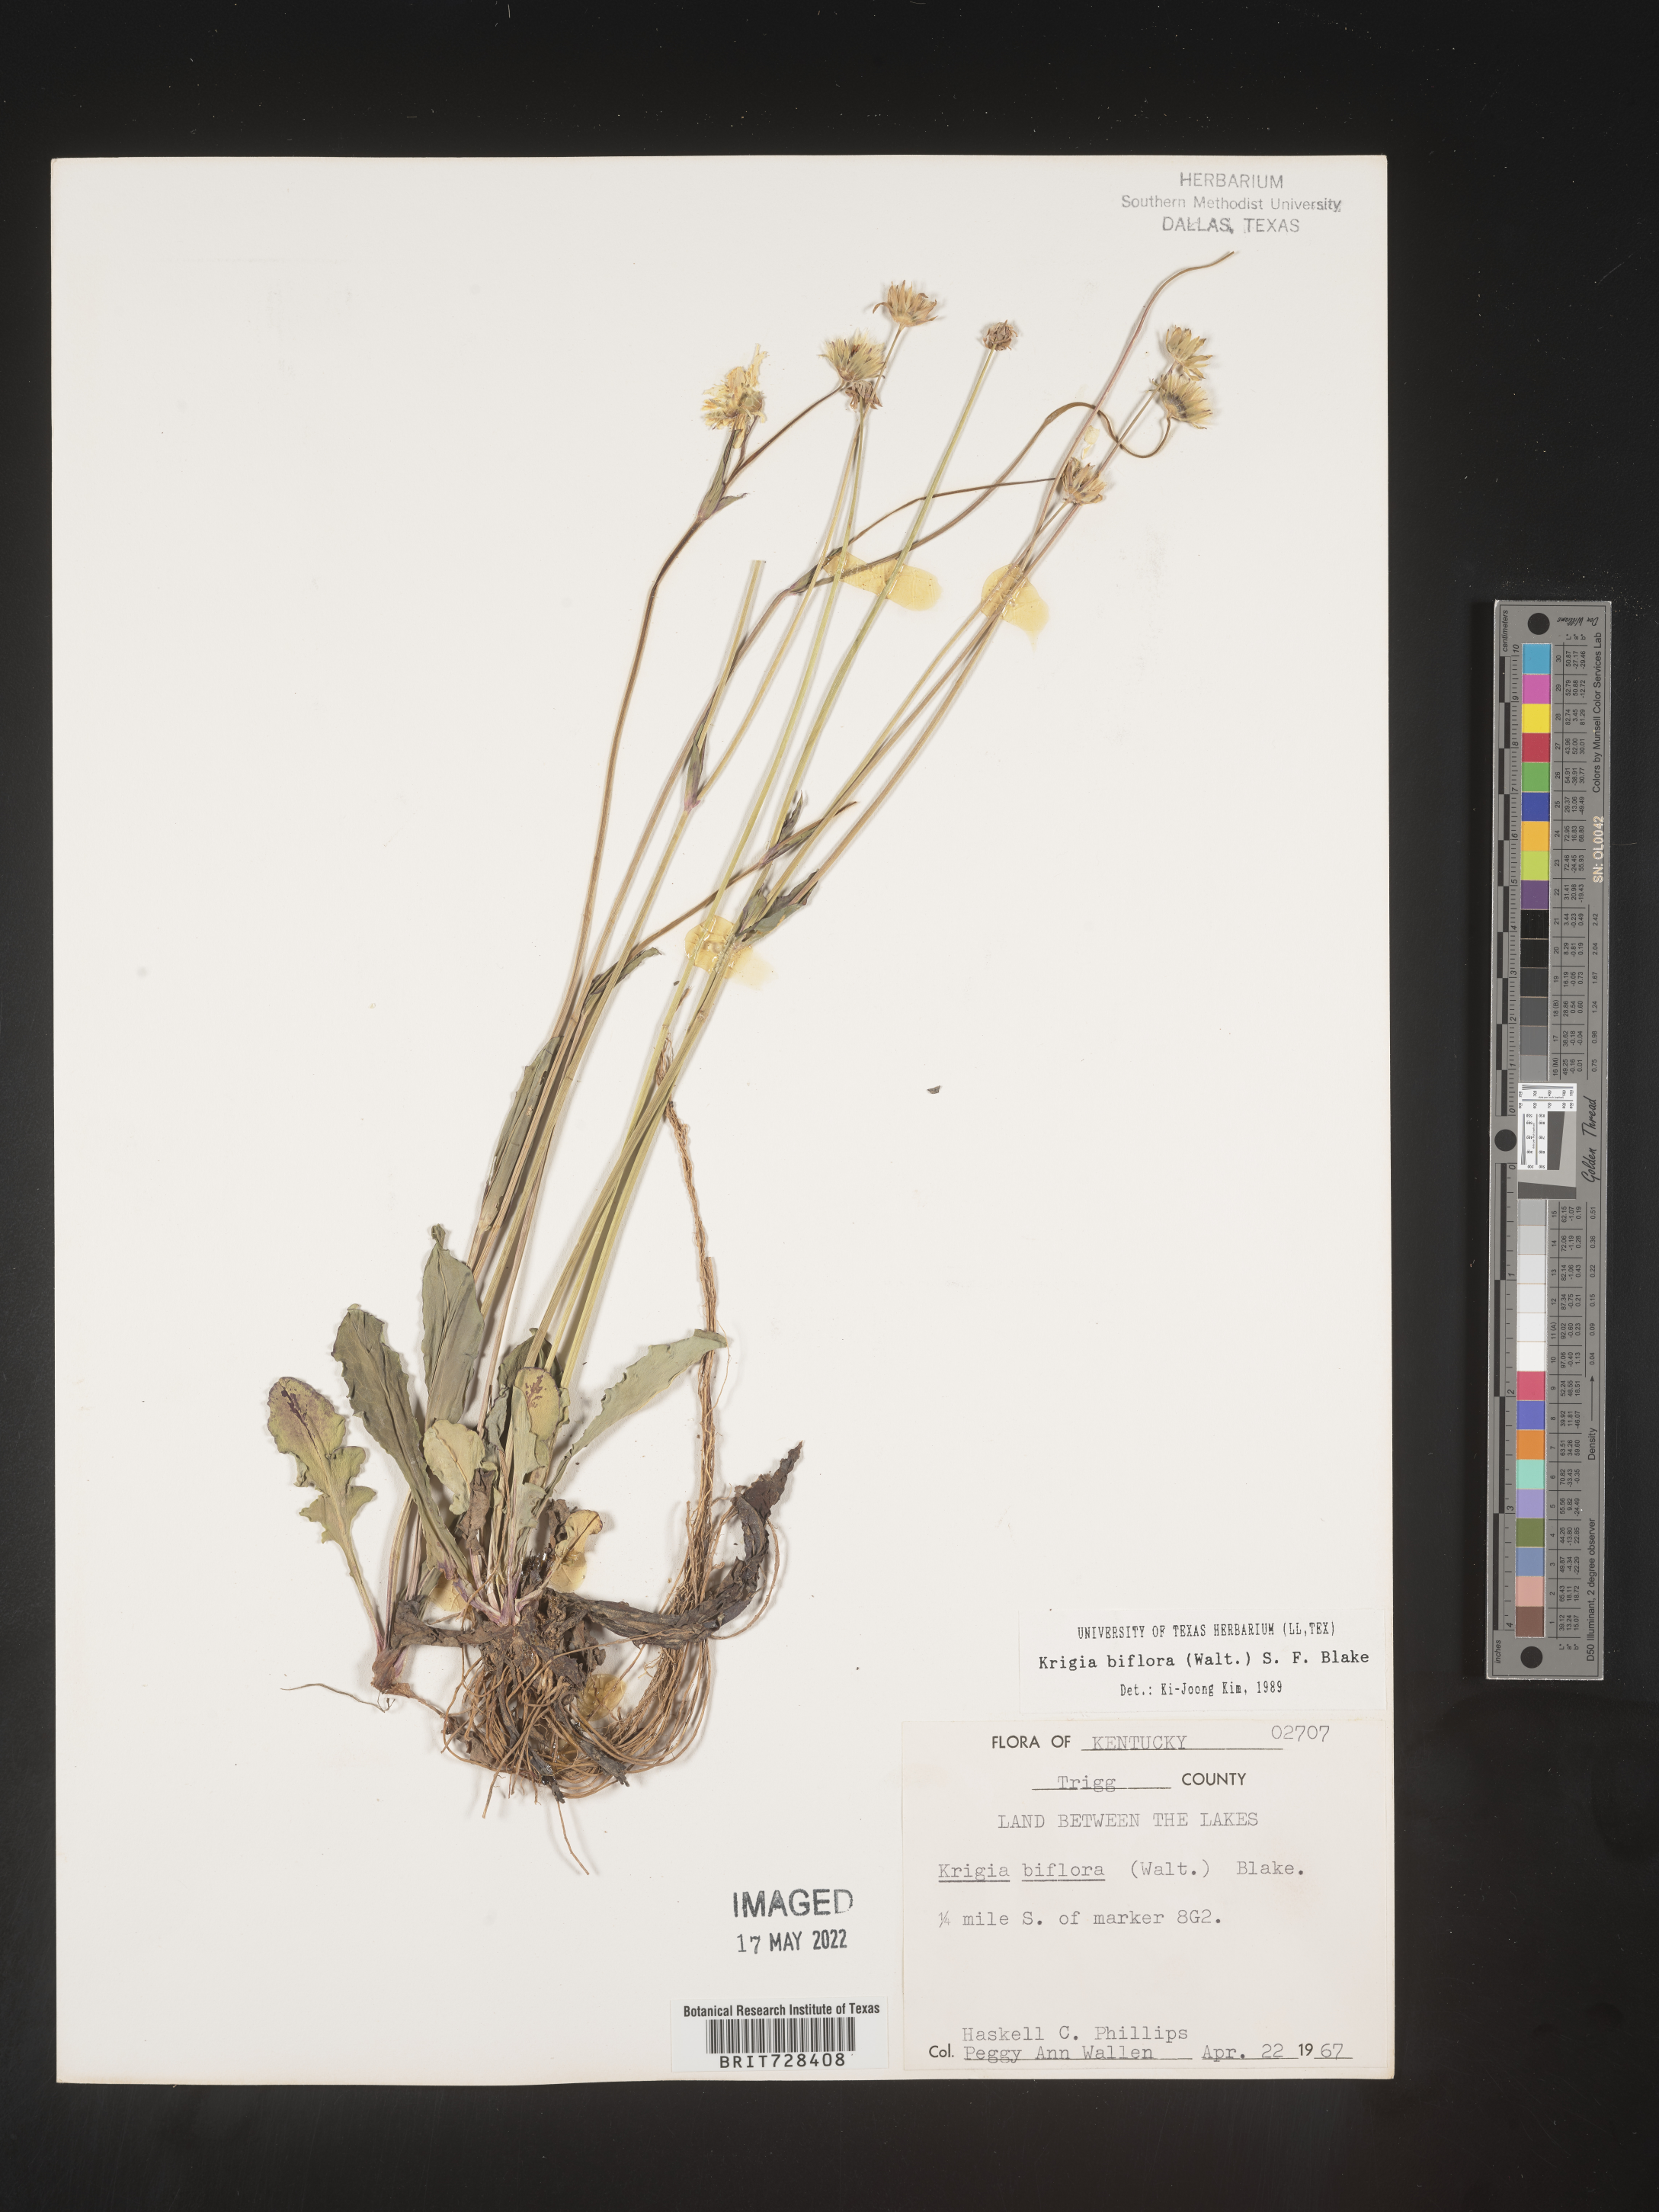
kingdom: Plantae
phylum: Tracheophyta
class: Magnoliopsida
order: Asterales
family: Asteraceae
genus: Krigia
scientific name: Krigia biflora
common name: Orange dwarf-dandelion
